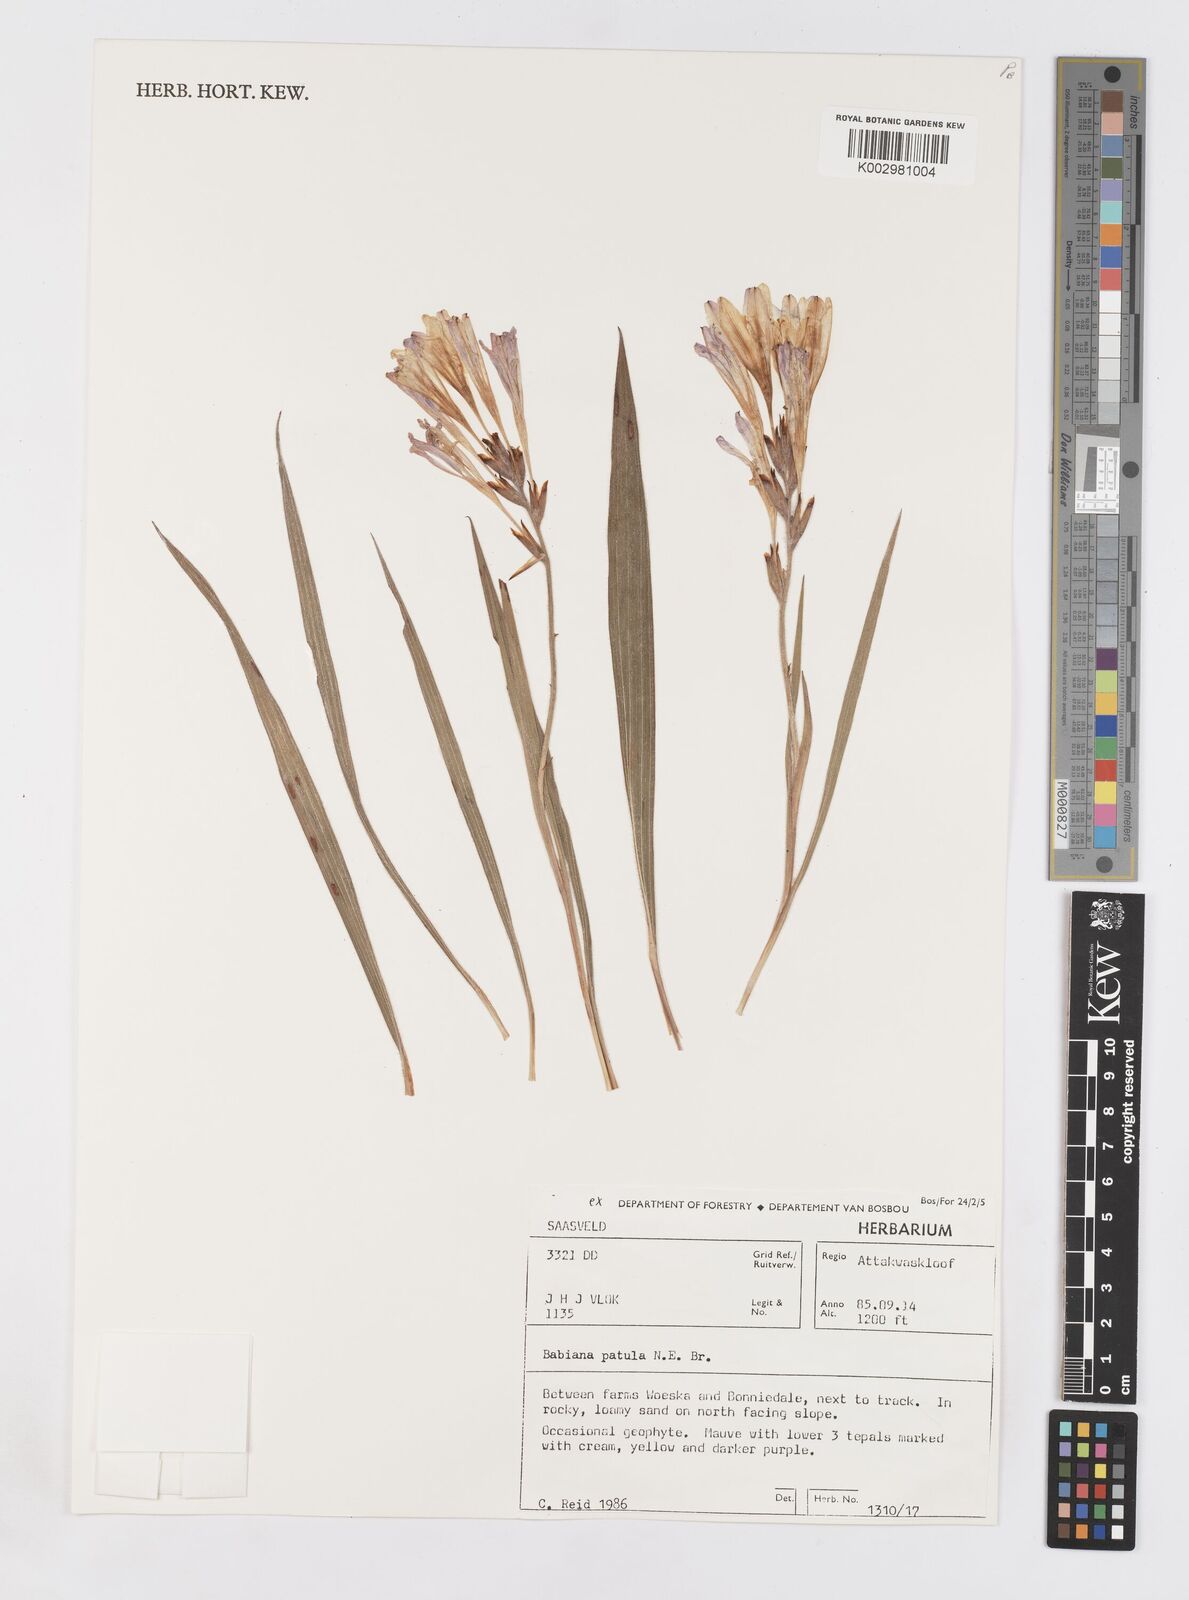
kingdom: Plantae
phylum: Tracheophyta
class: Liliopsida
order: Asparagales
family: Iridaceae
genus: Babiana
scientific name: Babiana patula
